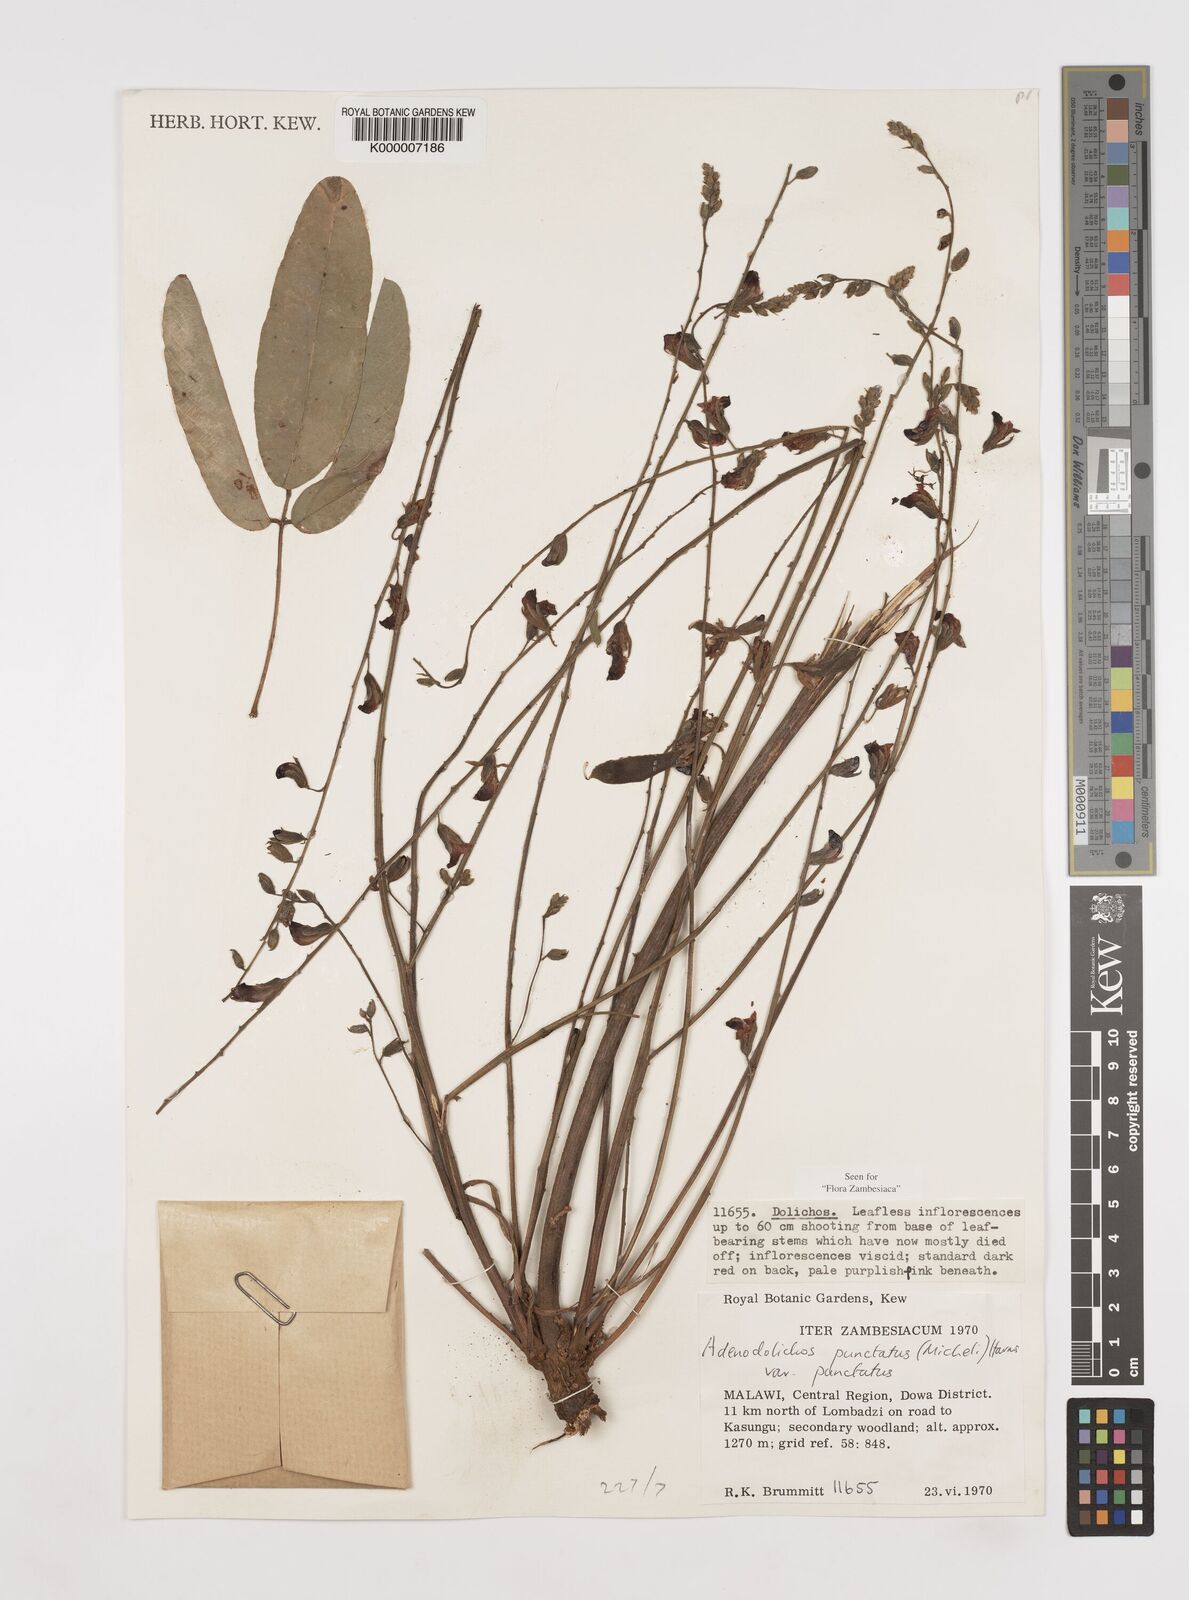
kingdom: Plantae
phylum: Tracheophyta
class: Magnoliopsida
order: Fabales
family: Fabaceae
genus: Adenodolichos
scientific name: Adenodolichos punctatus
